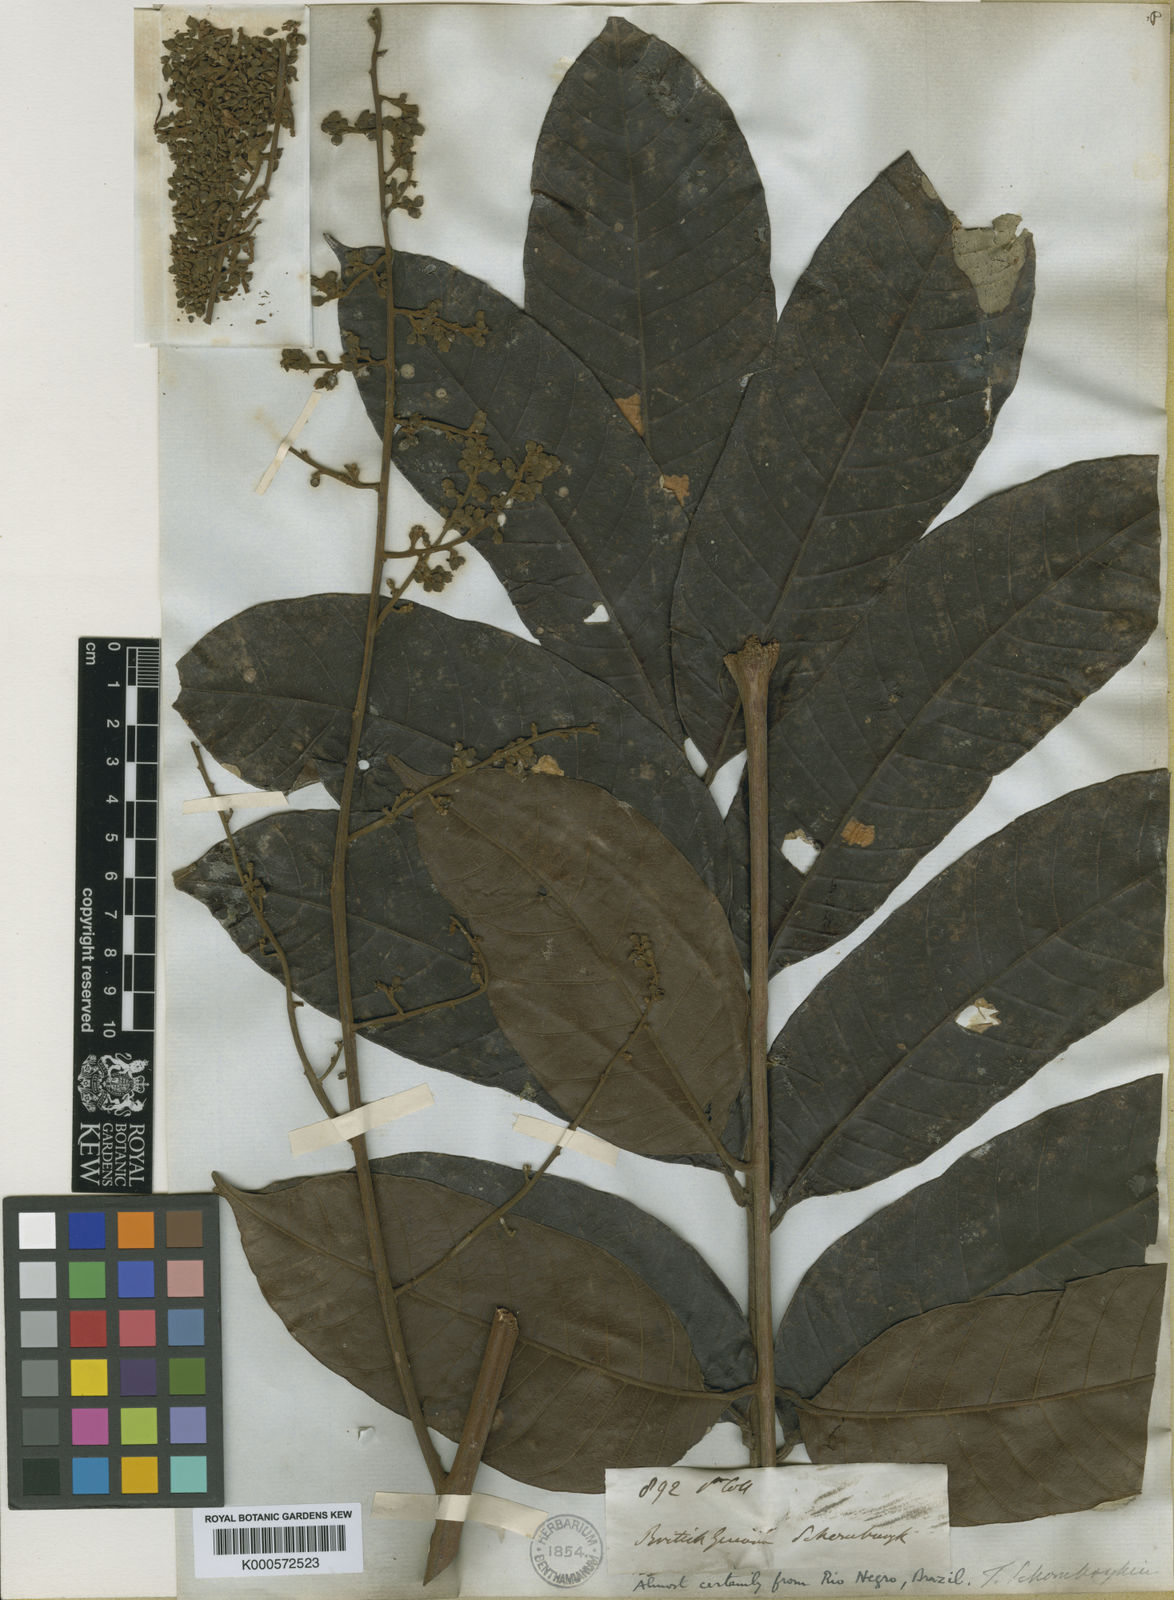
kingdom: Plantae
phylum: Tracheophyta
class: Magnoliopsida
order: Sapindales
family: Anacardiaceae
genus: Thyrsodium
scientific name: Thyrsodium spruceanum
